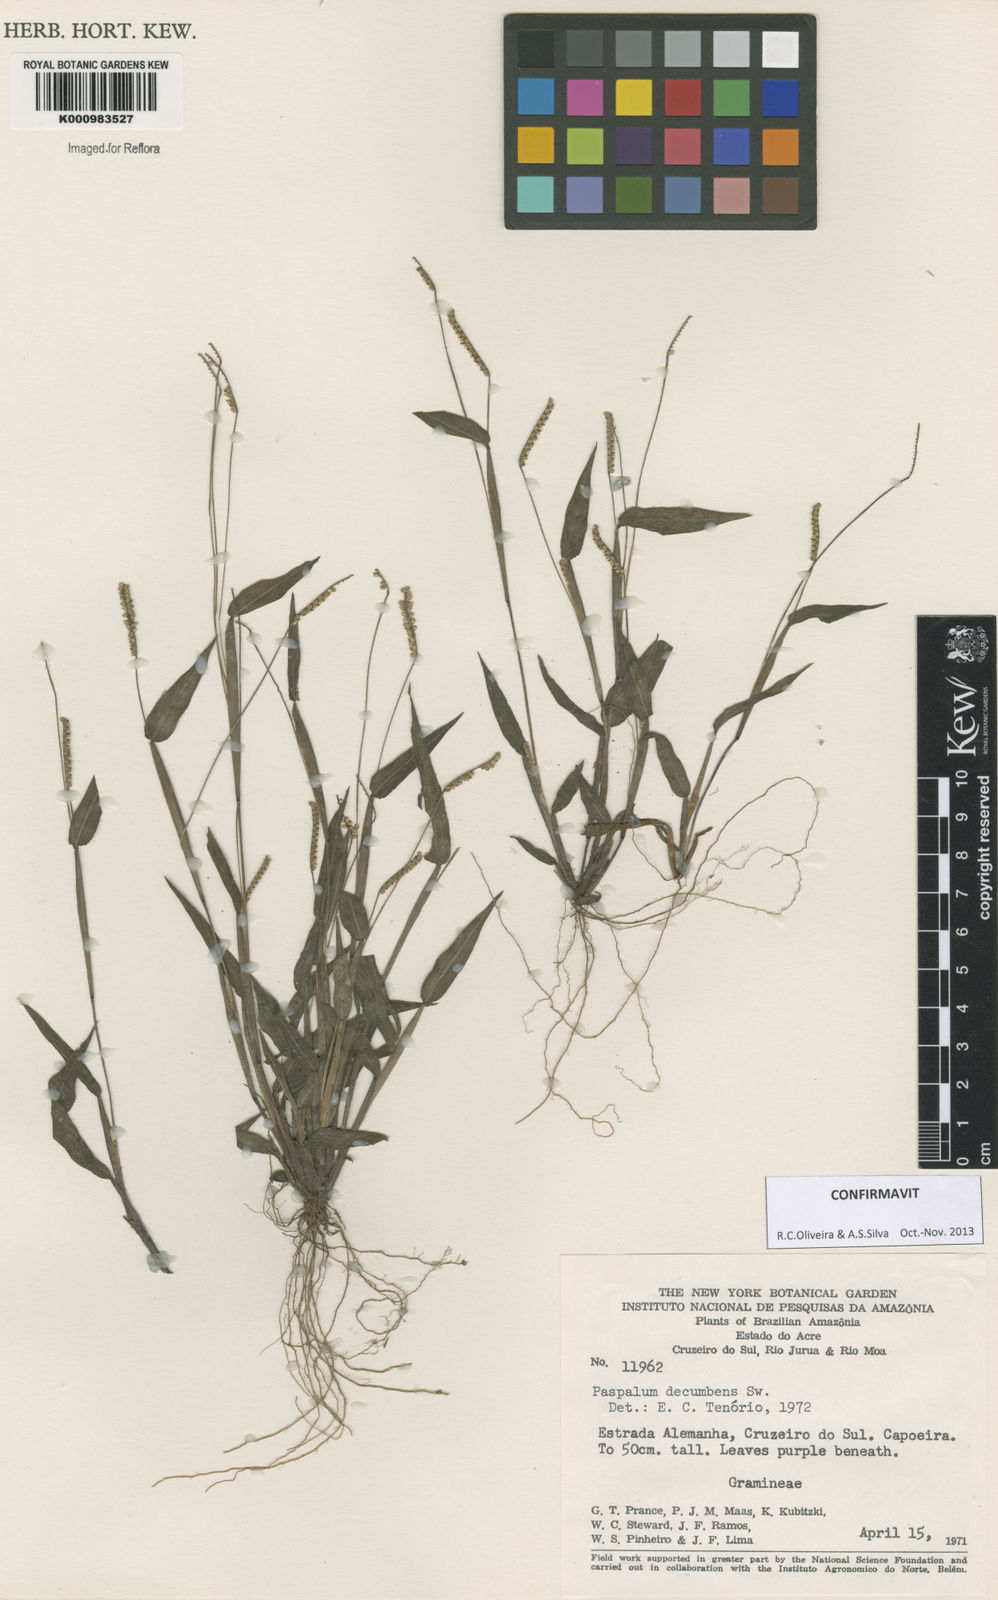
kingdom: Plantae
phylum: Tracheophyta
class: Liliopsida
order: Poales
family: Poaceae
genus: Paspalum
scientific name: Paspalum decumbens
